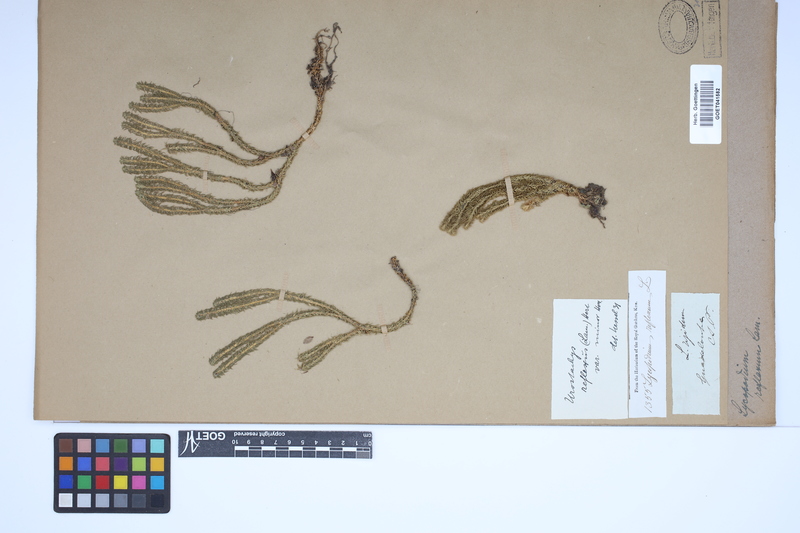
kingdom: Plantae
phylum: Tracheophyta
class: Lycopodiopsida
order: Lycopodiales
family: Lycopodiaceae
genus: Huperzia
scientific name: Huperzia lucidula
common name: Shining clubmoss
